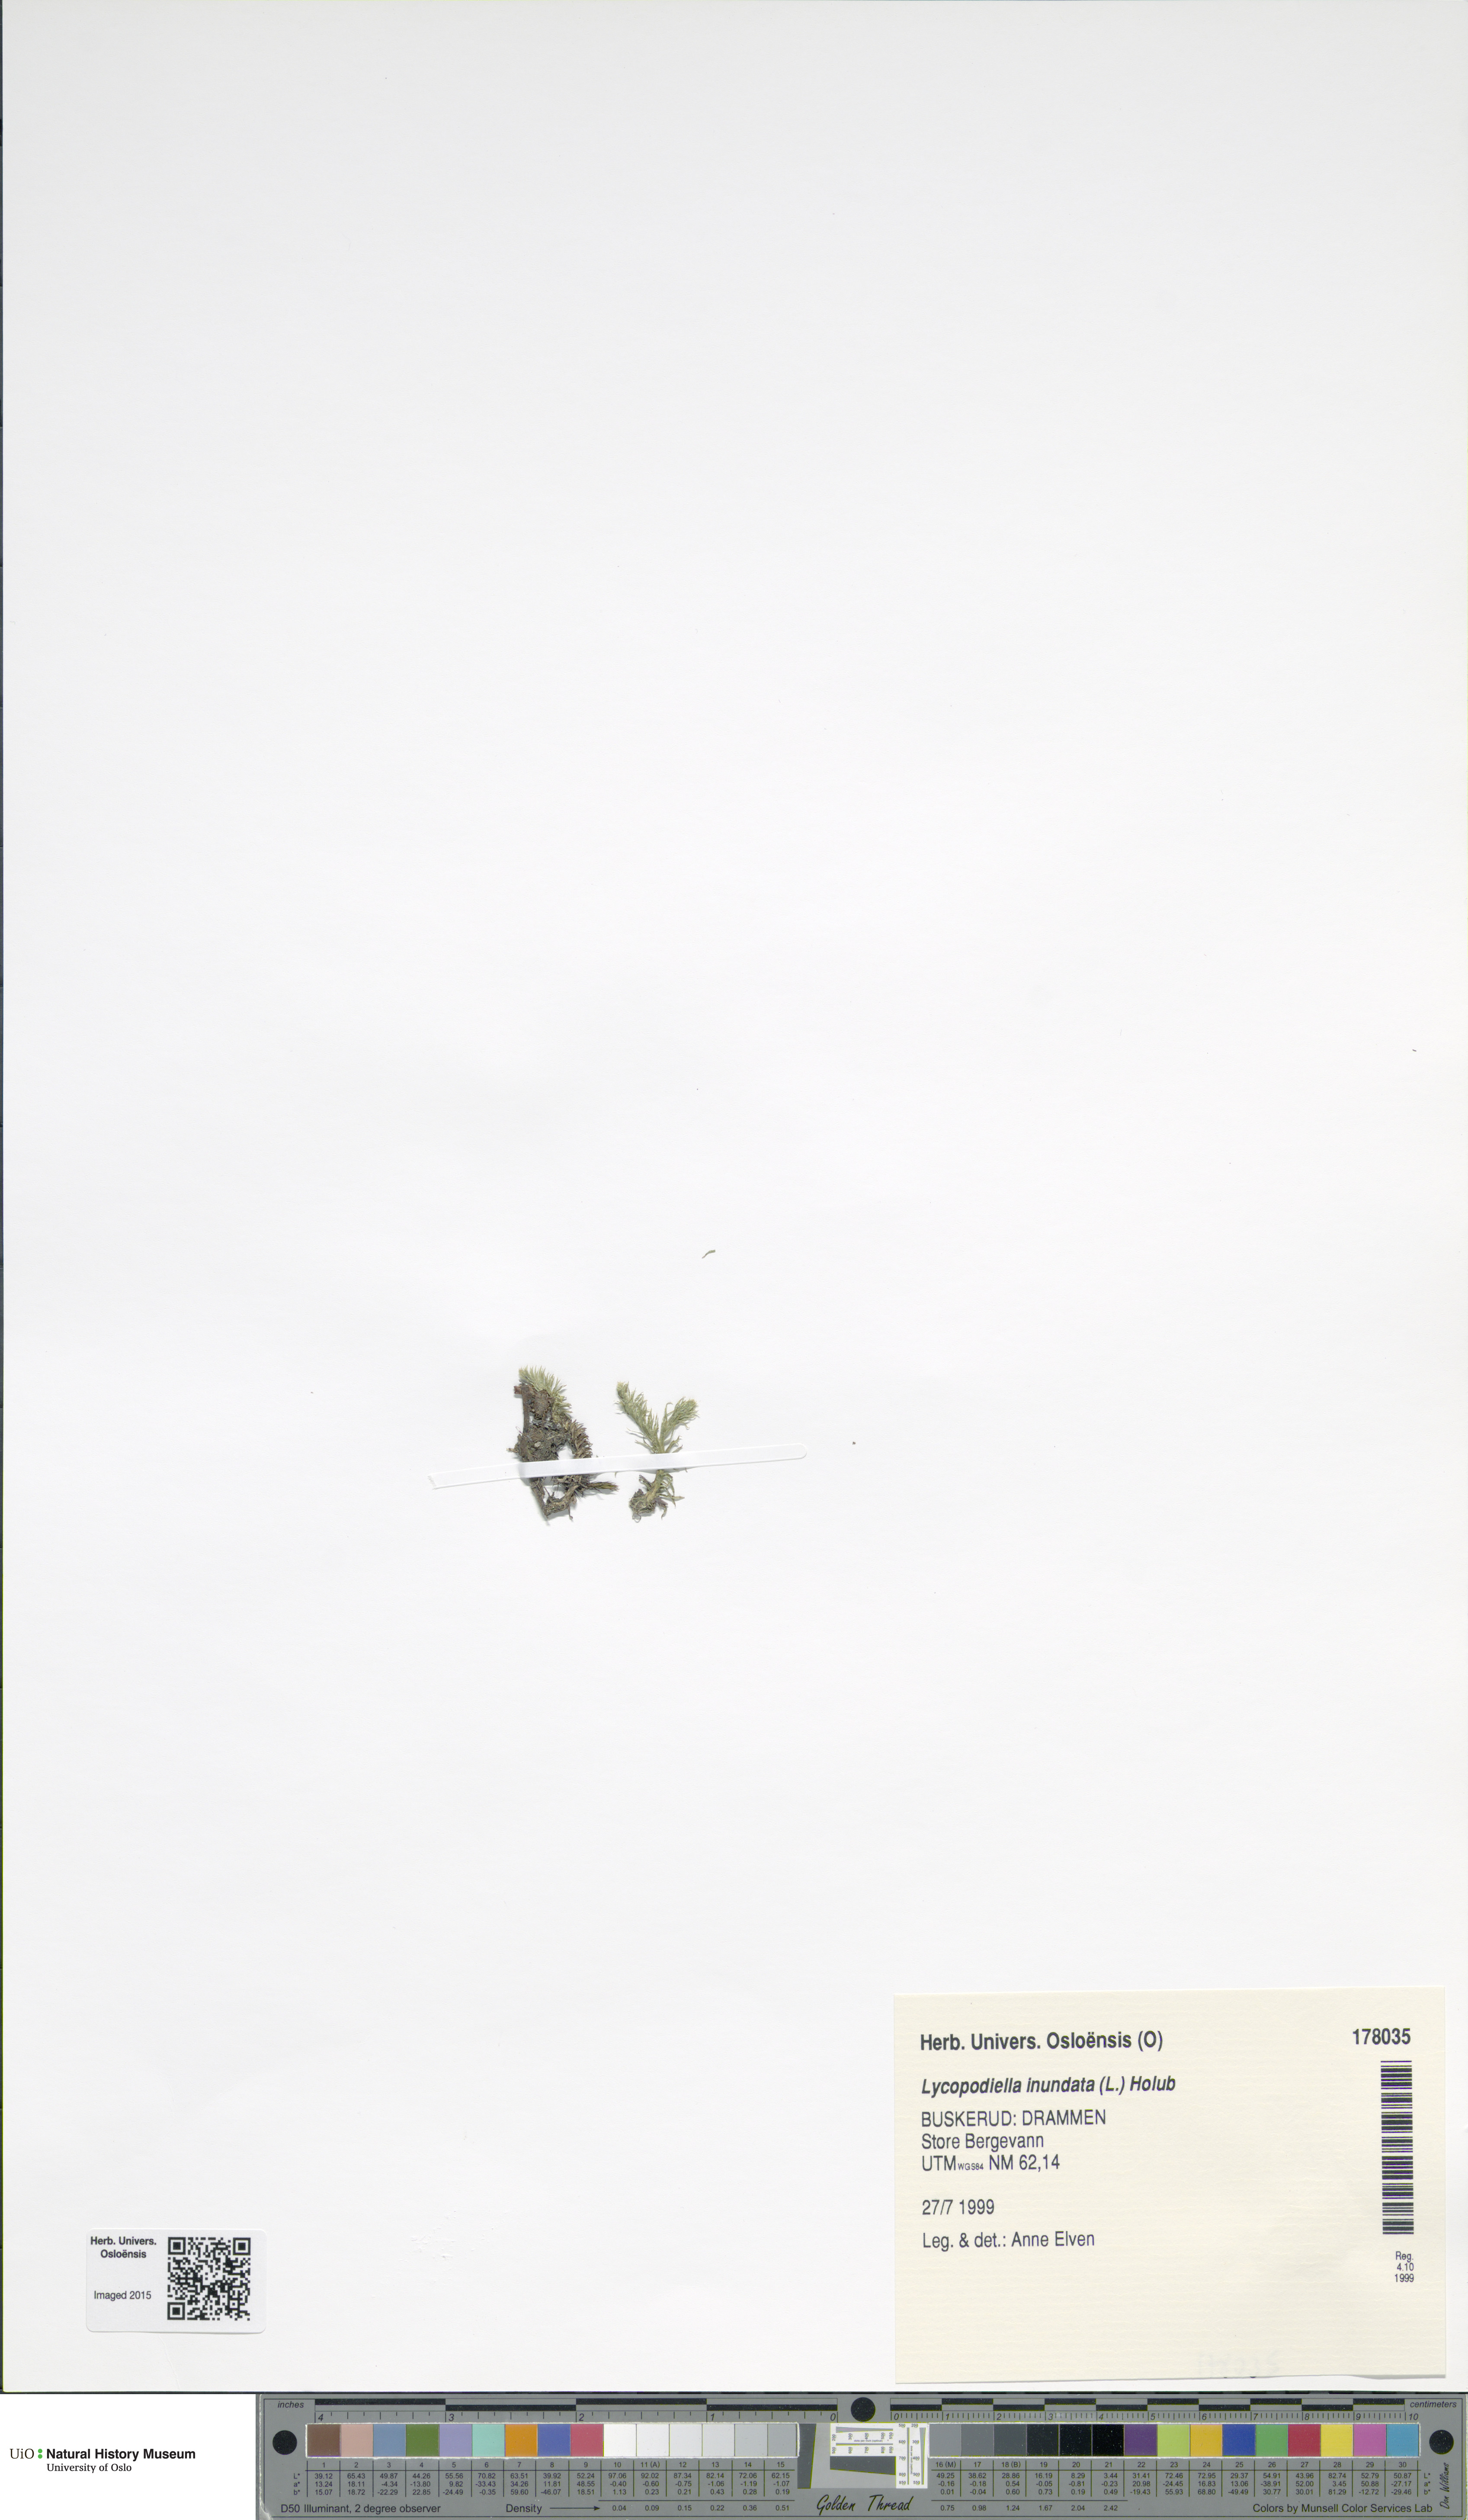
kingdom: Plantae
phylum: Tracheophyta
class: Lycopodiopsida
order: Lycopodiales
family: Lycopodiaceae
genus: Lycopodiella
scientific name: Lycopodiella inundata
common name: Marsh clubmoss
